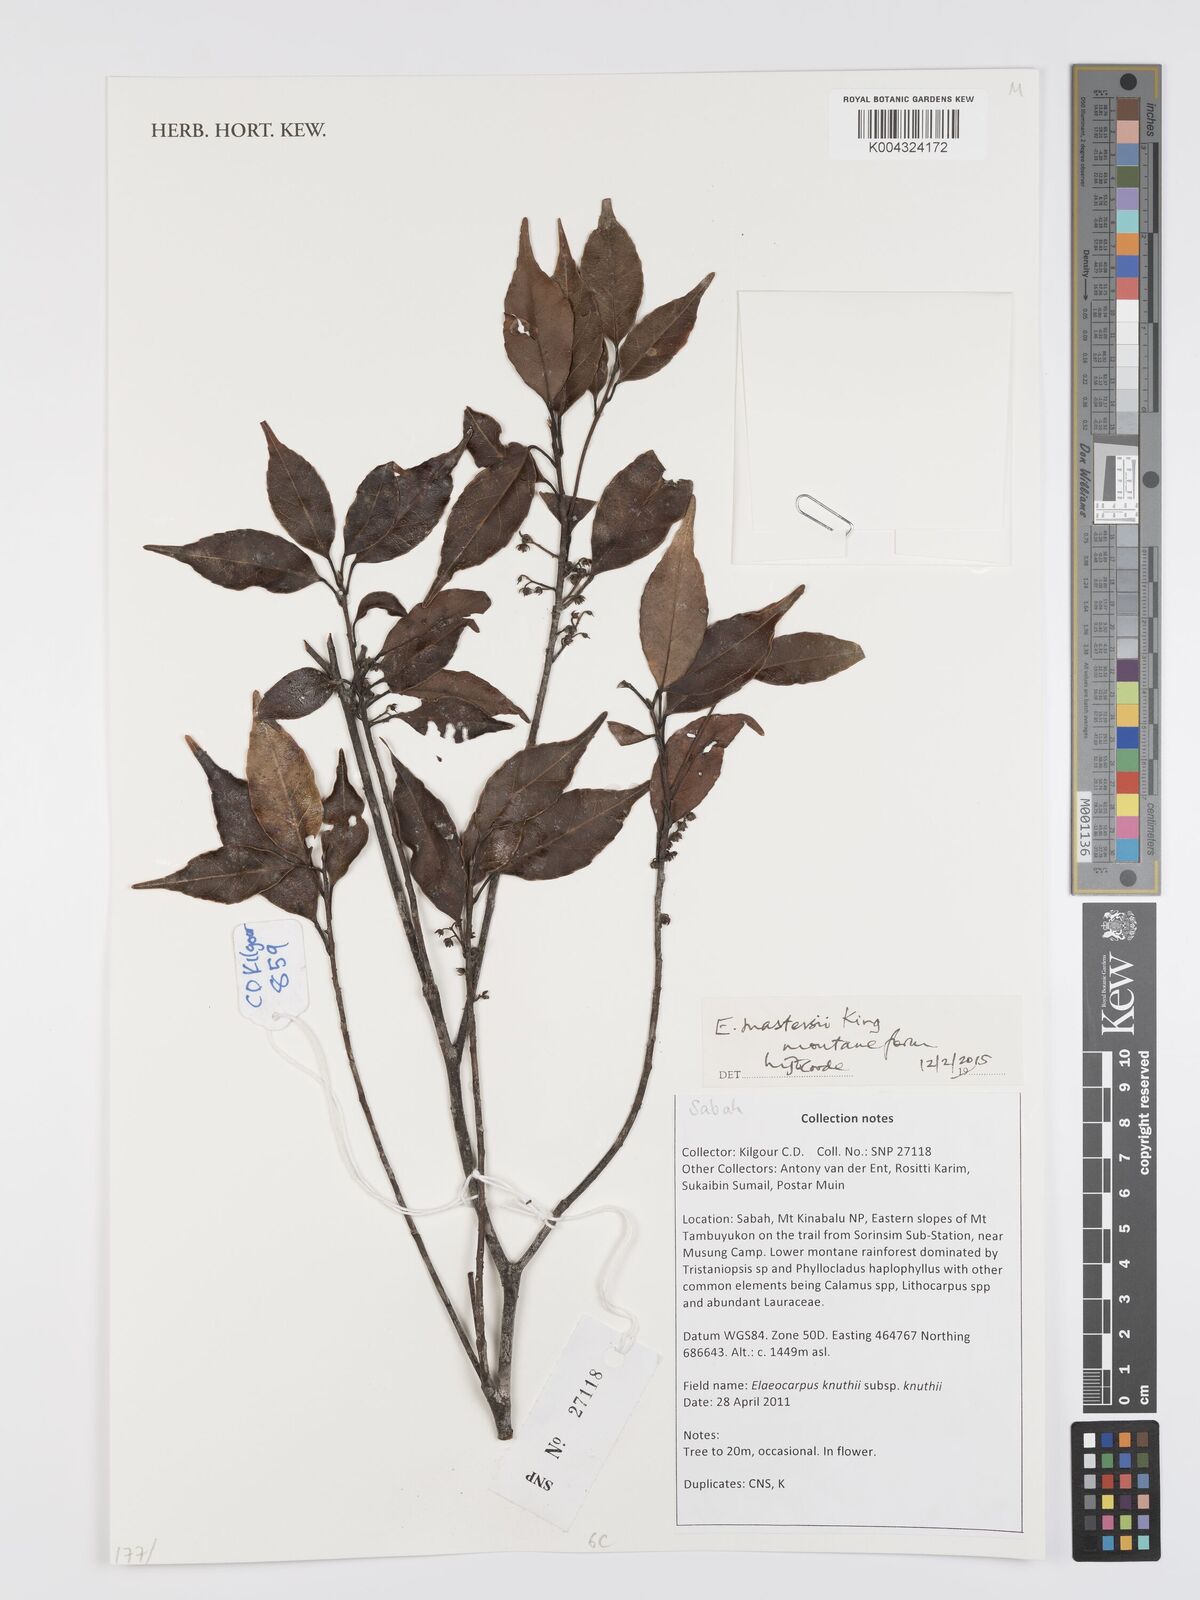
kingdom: Plantae
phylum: Tracheophyta
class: Magnoliopsida
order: Oxalidales
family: Elaeocarpaceae
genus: Elaeocarpus
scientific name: Elaeocarpus mastersii
